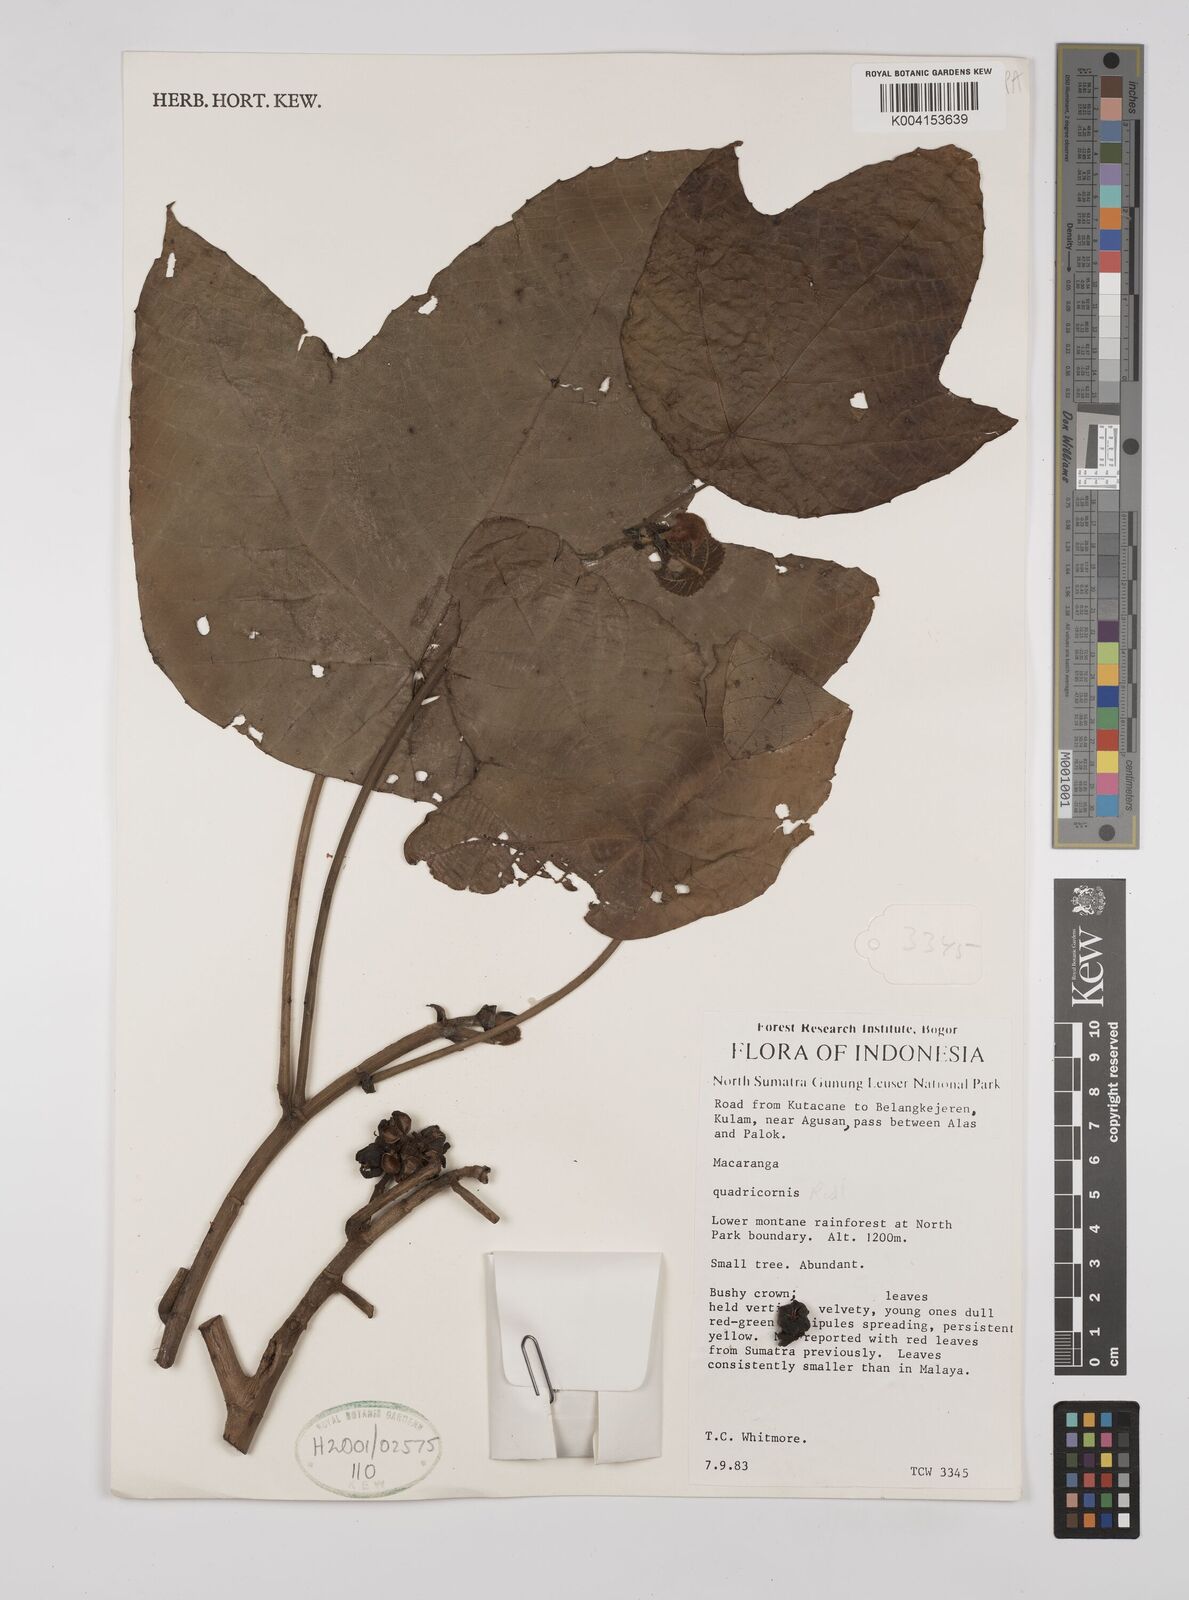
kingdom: Plantae
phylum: Tracheophyta
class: Magnoliopsida
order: Malpighiales
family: Euphorbiaceae
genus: Macaranga
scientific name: Macaranga triloba
